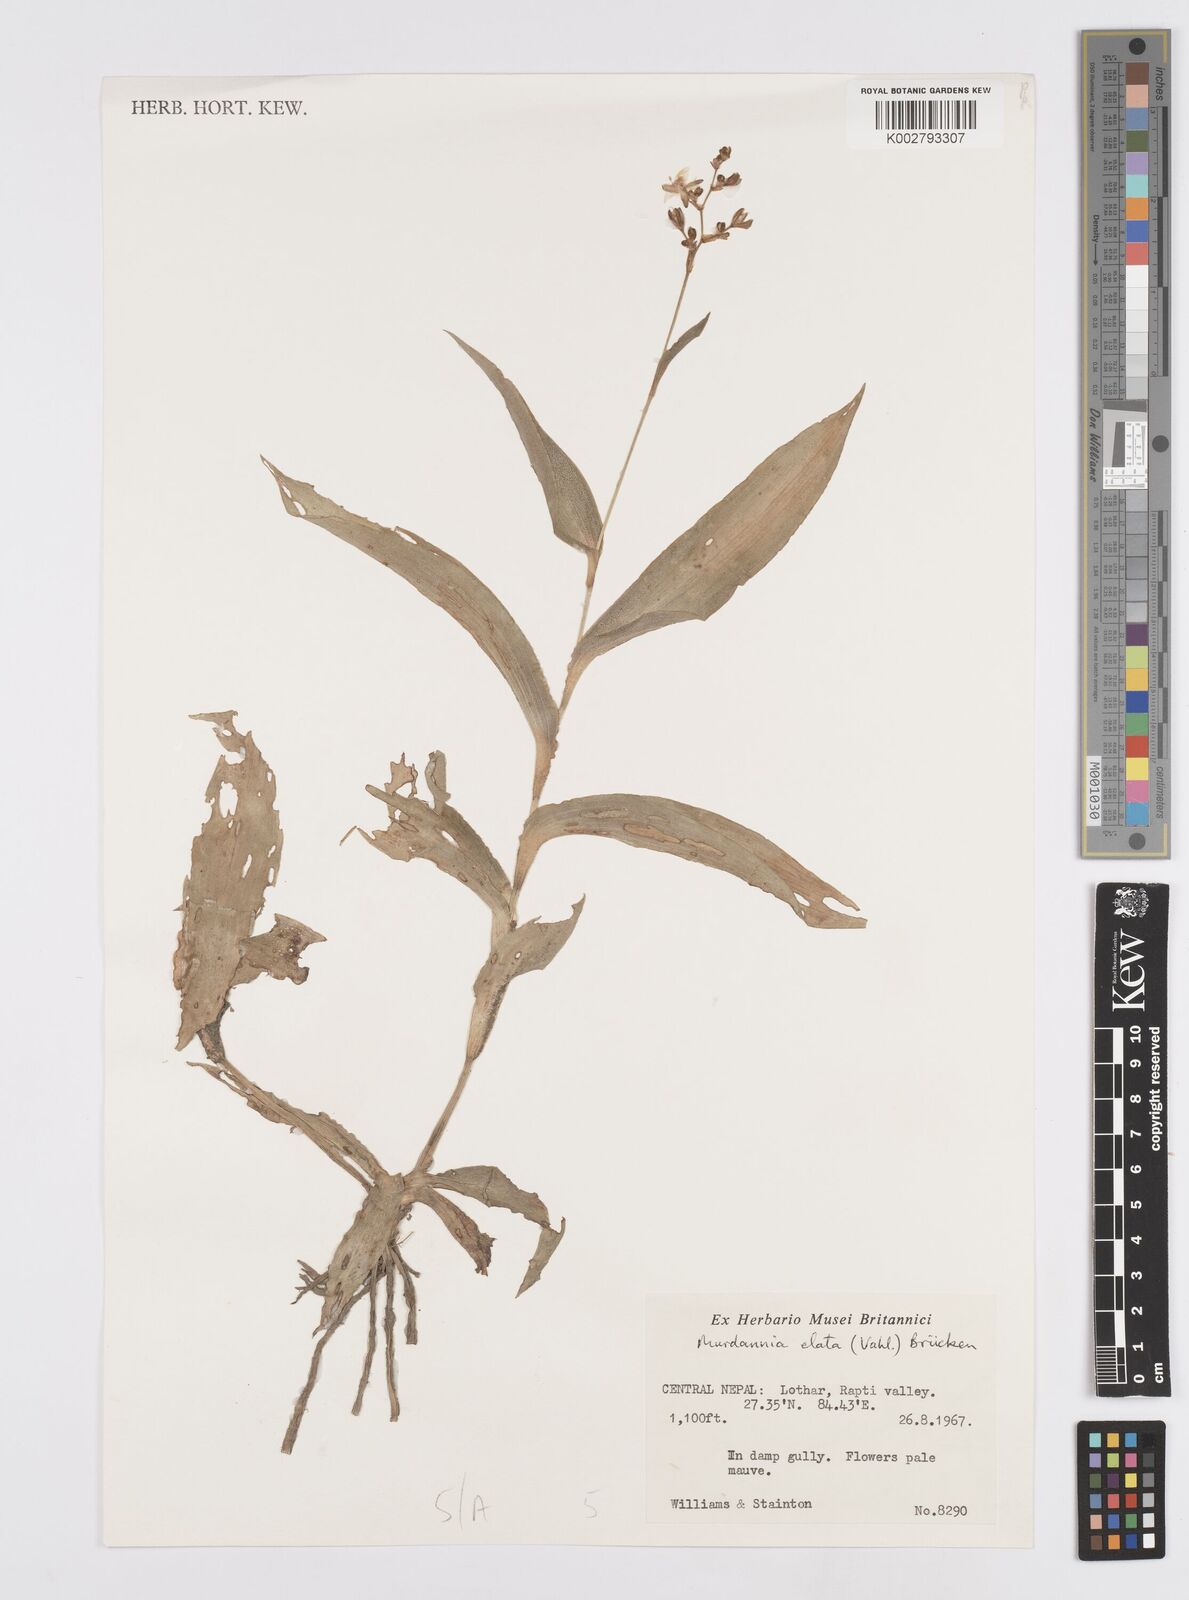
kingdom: Plantae
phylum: Tracheophyta
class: Liliopsida
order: Commelinales
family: Commelinaceae
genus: Murdannia
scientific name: Murdannia japonica
